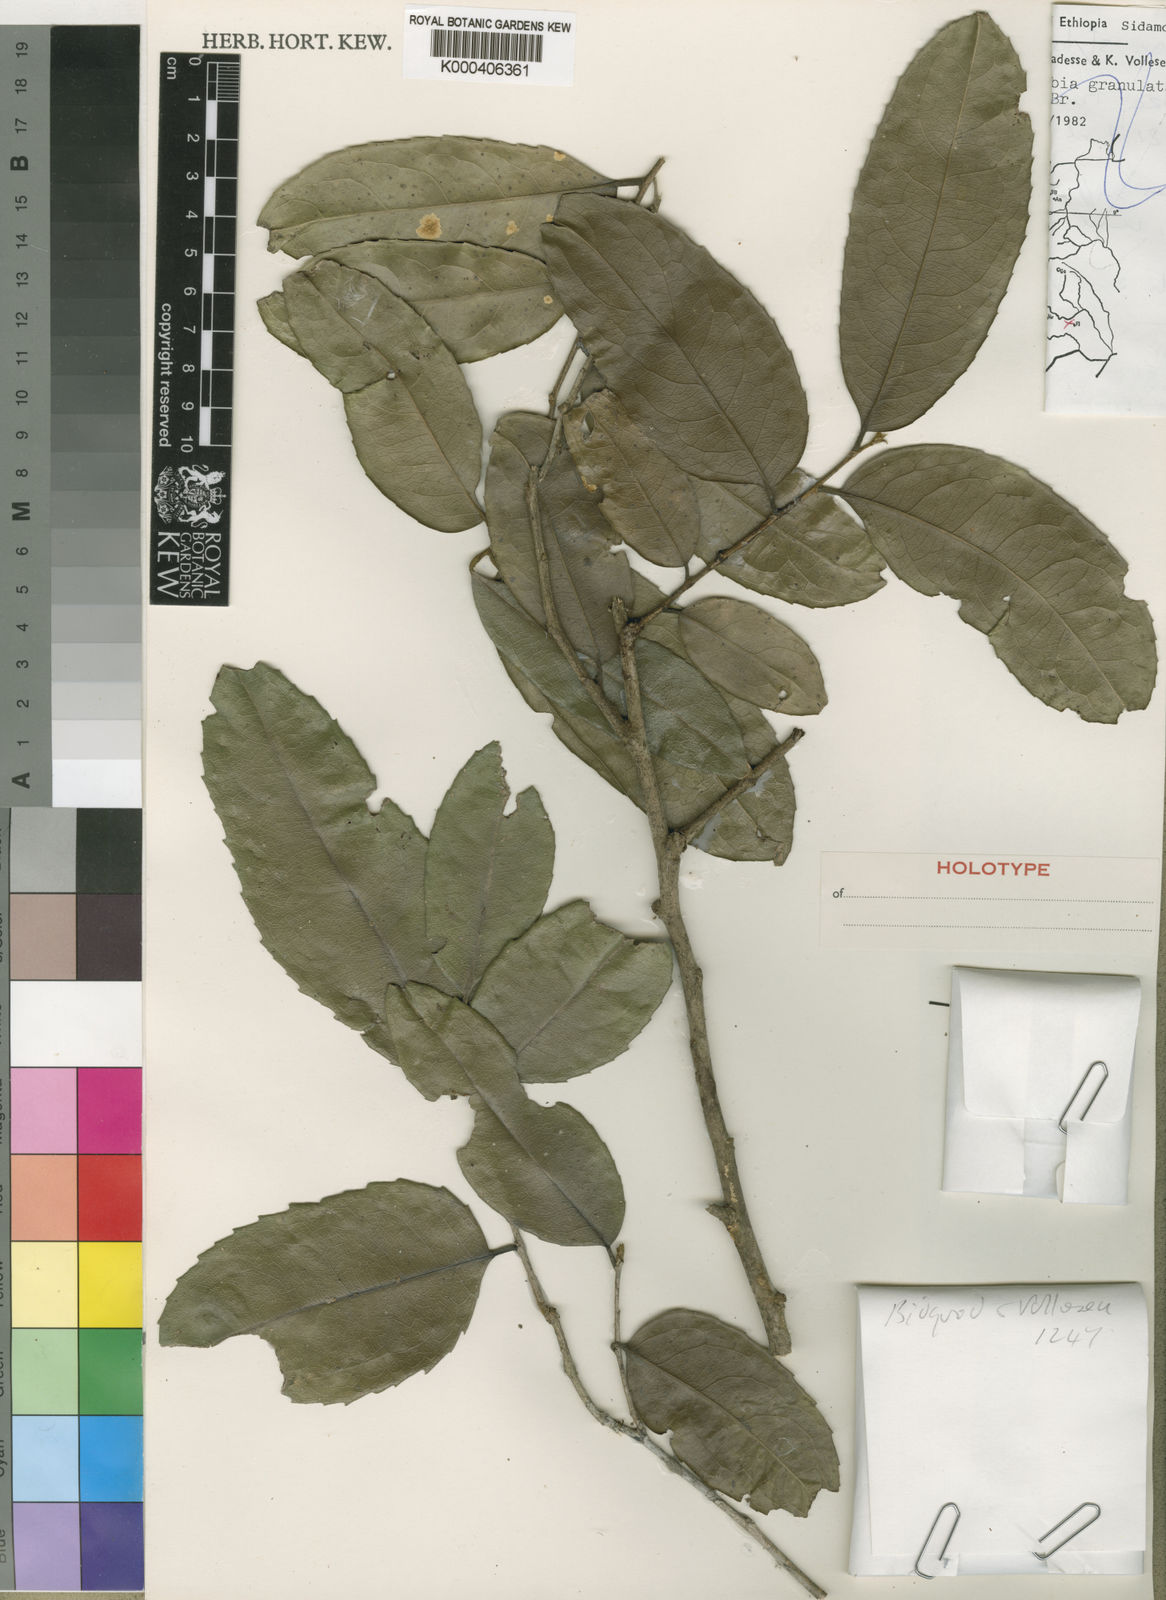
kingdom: Plantae
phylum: Tracheophyta
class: Magnoliopsida
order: Malpighiales
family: Putranjivaceae
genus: Drypetes
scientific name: Drypetes usambarica
